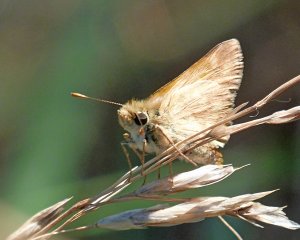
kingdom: Animalia
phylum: Arthropoda
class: Insecta
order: Lepidoptera
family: Hesperiidae
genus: Ochlodes
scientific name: Ochlodes sylvanoides
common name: Woodland Skipper
